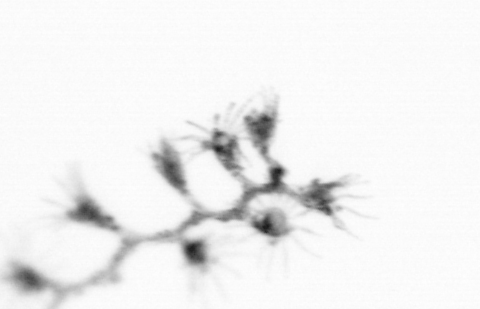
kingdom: Animalia
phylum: Cnidaria
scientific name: Cnidaria
